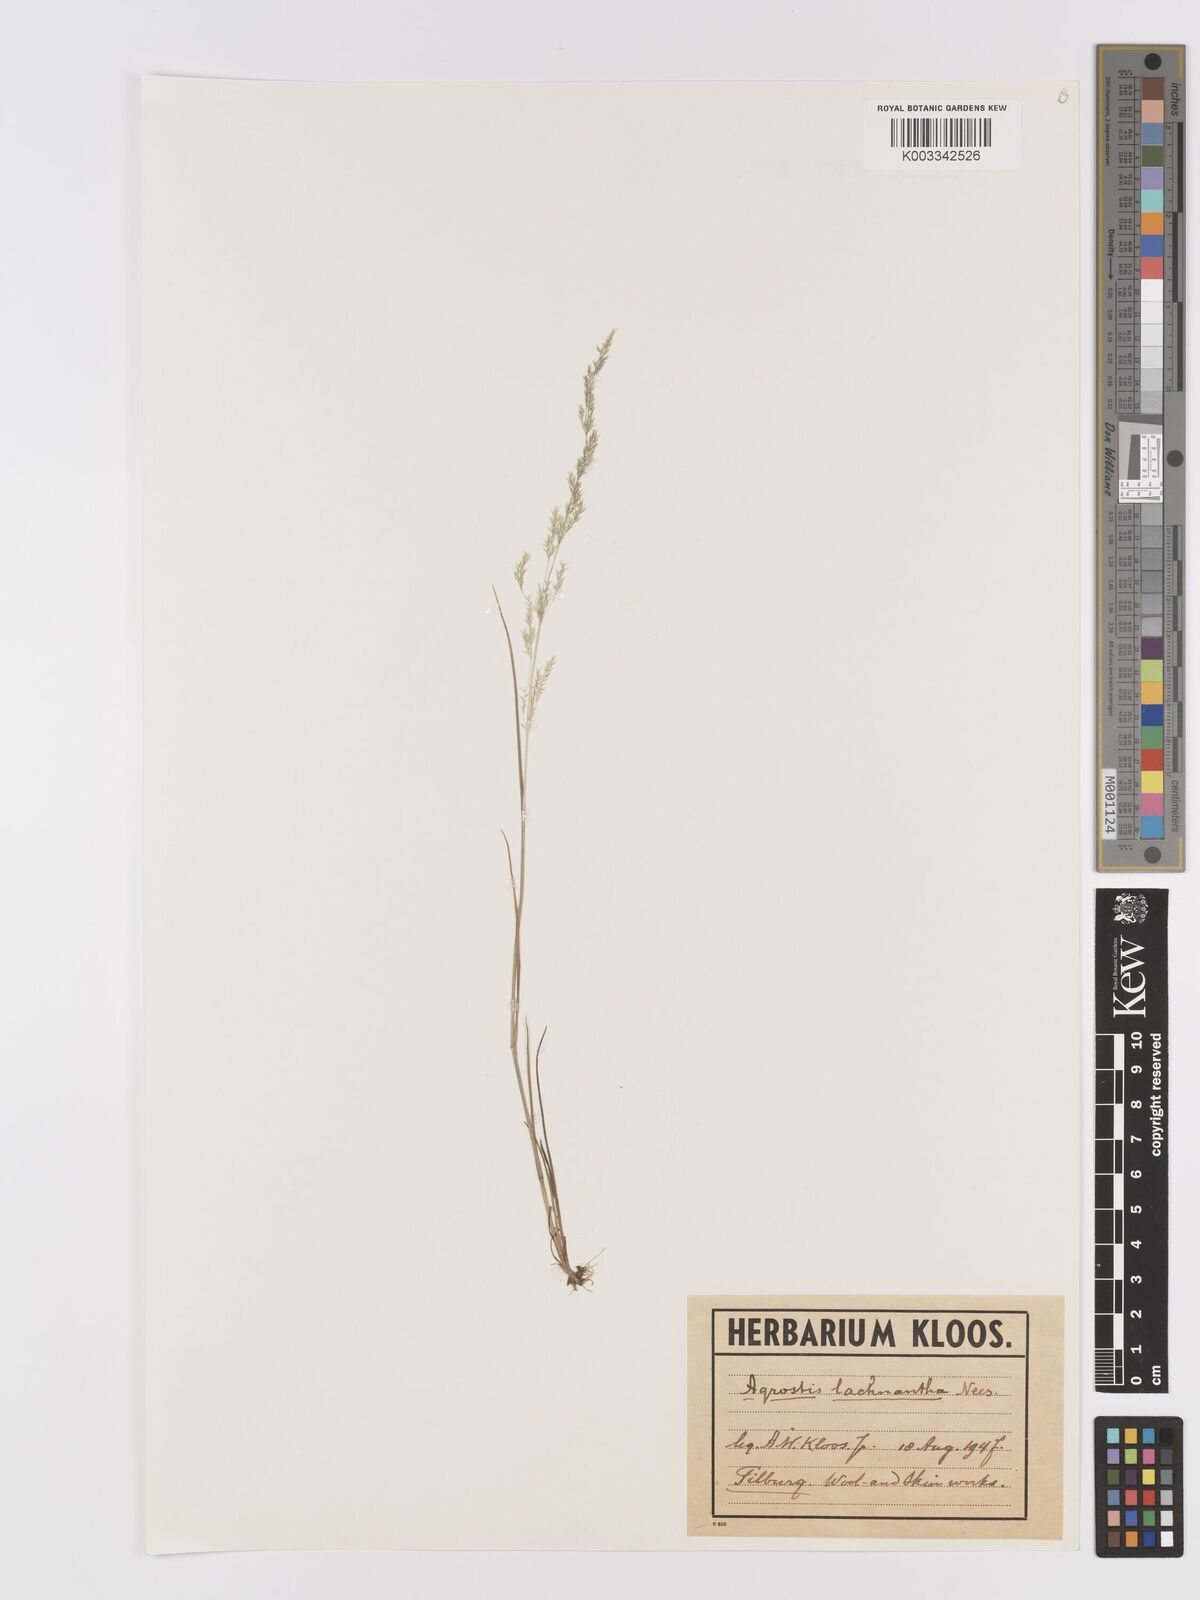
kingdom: Plantae
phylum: Tracheophyta
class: Liliopsida
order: Poales
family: Poaceae
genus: Lachnagrostis
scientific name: Lachnagrostis lachnantha
